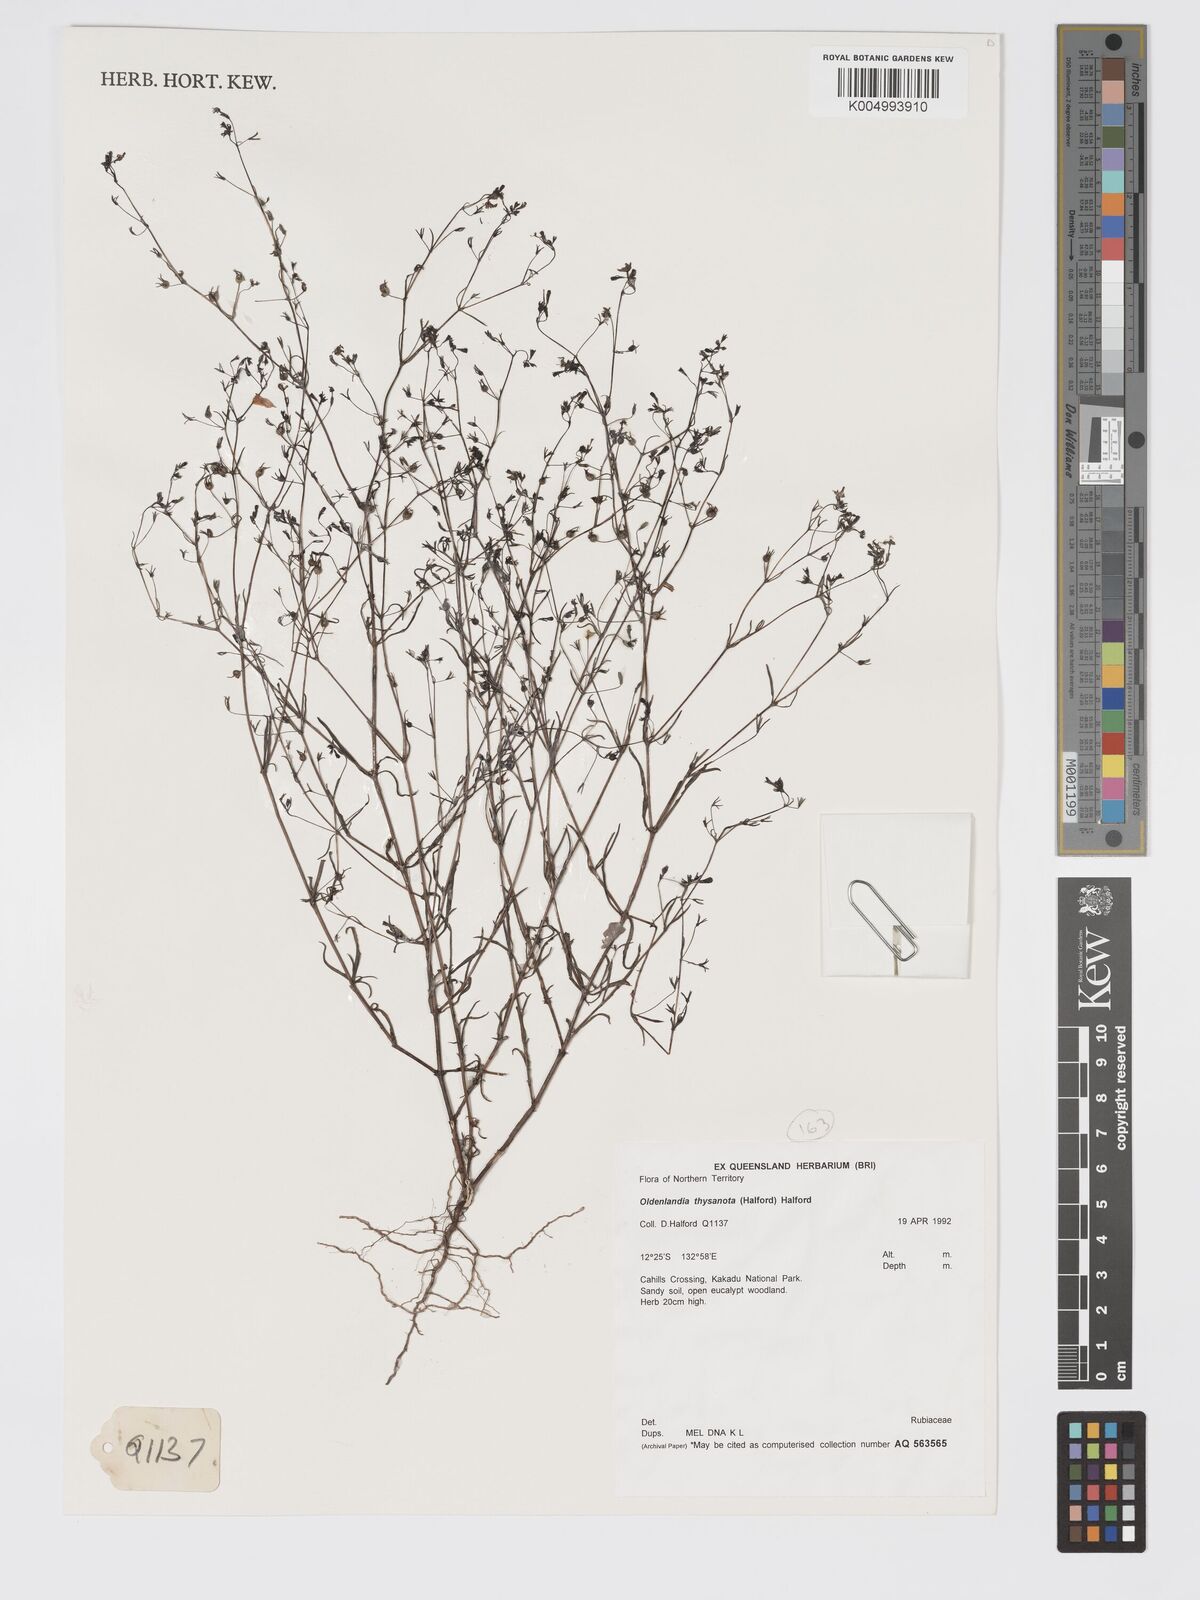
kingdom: Plantae
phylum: Tracheophyta
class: Magnoliopsida
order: Gentianales
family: Rubiaceae
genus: Scleromitrion
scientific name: Scleromitrion thysanotum
